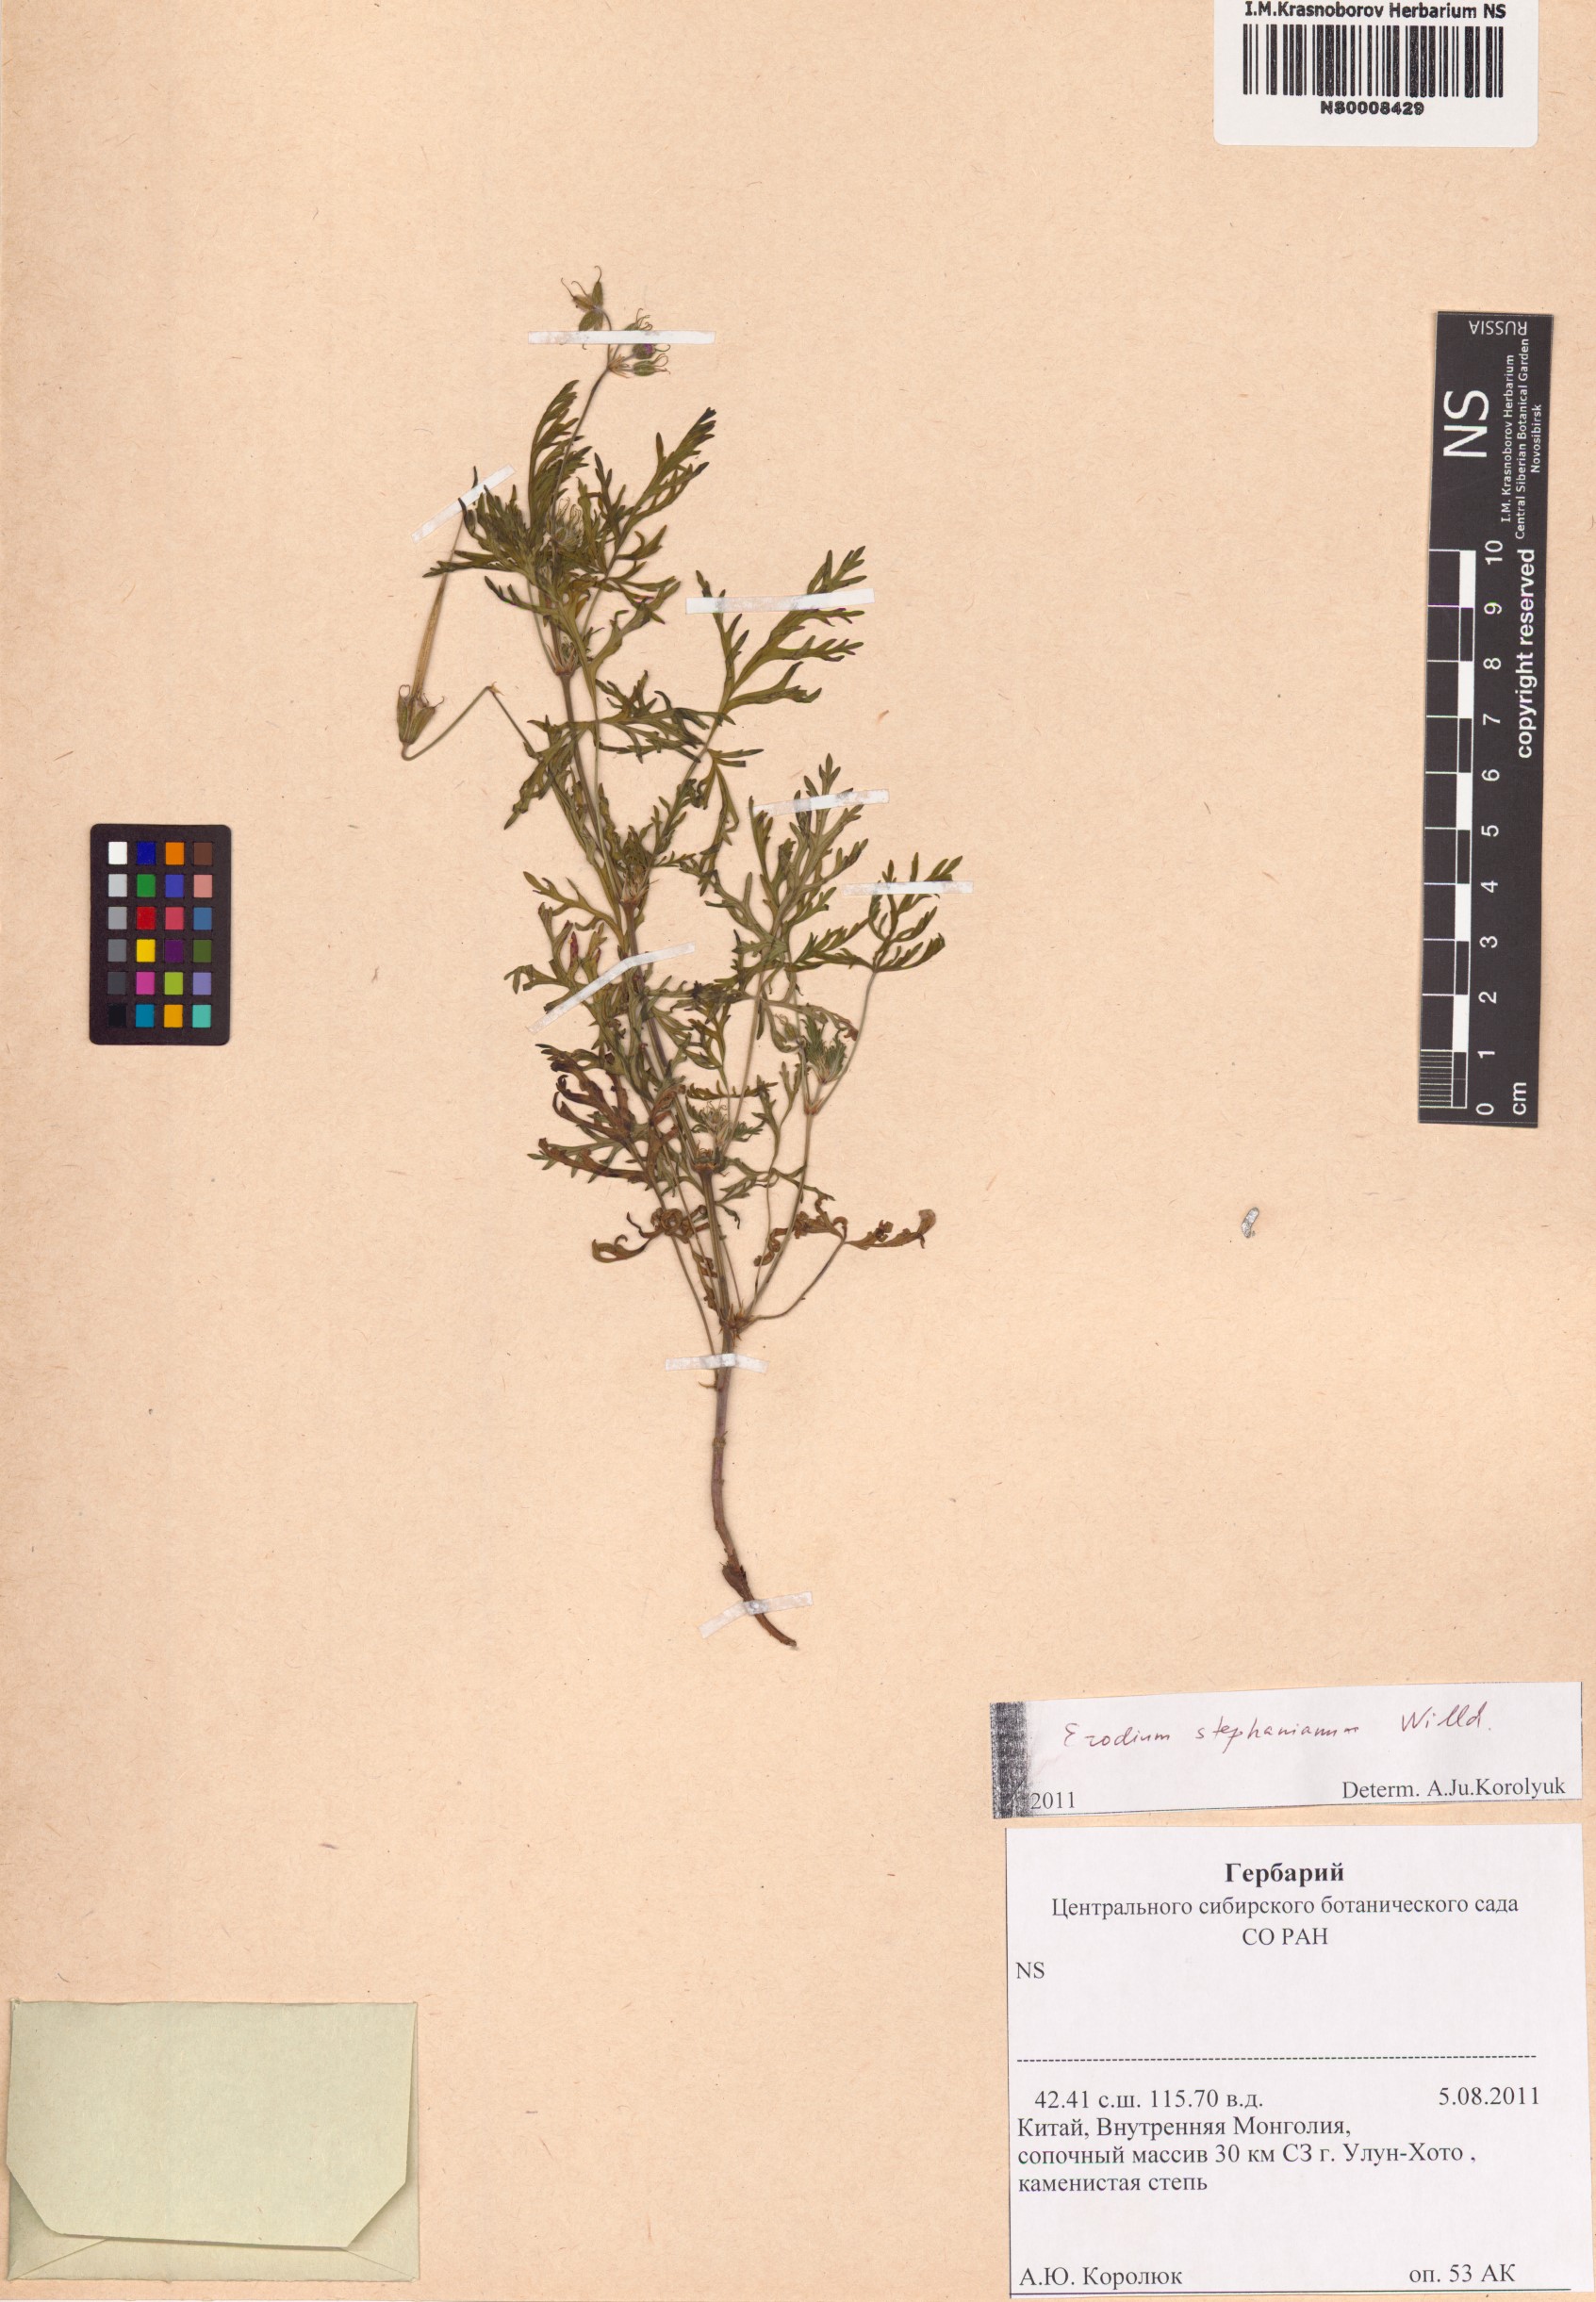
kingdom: Plantae
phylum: Tracheophyta
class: Magnoliopsida
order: Geraniales
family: Geraniaceae
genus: Erodium
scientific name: Erodium stephanianum
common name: Stephen's stork's bill
